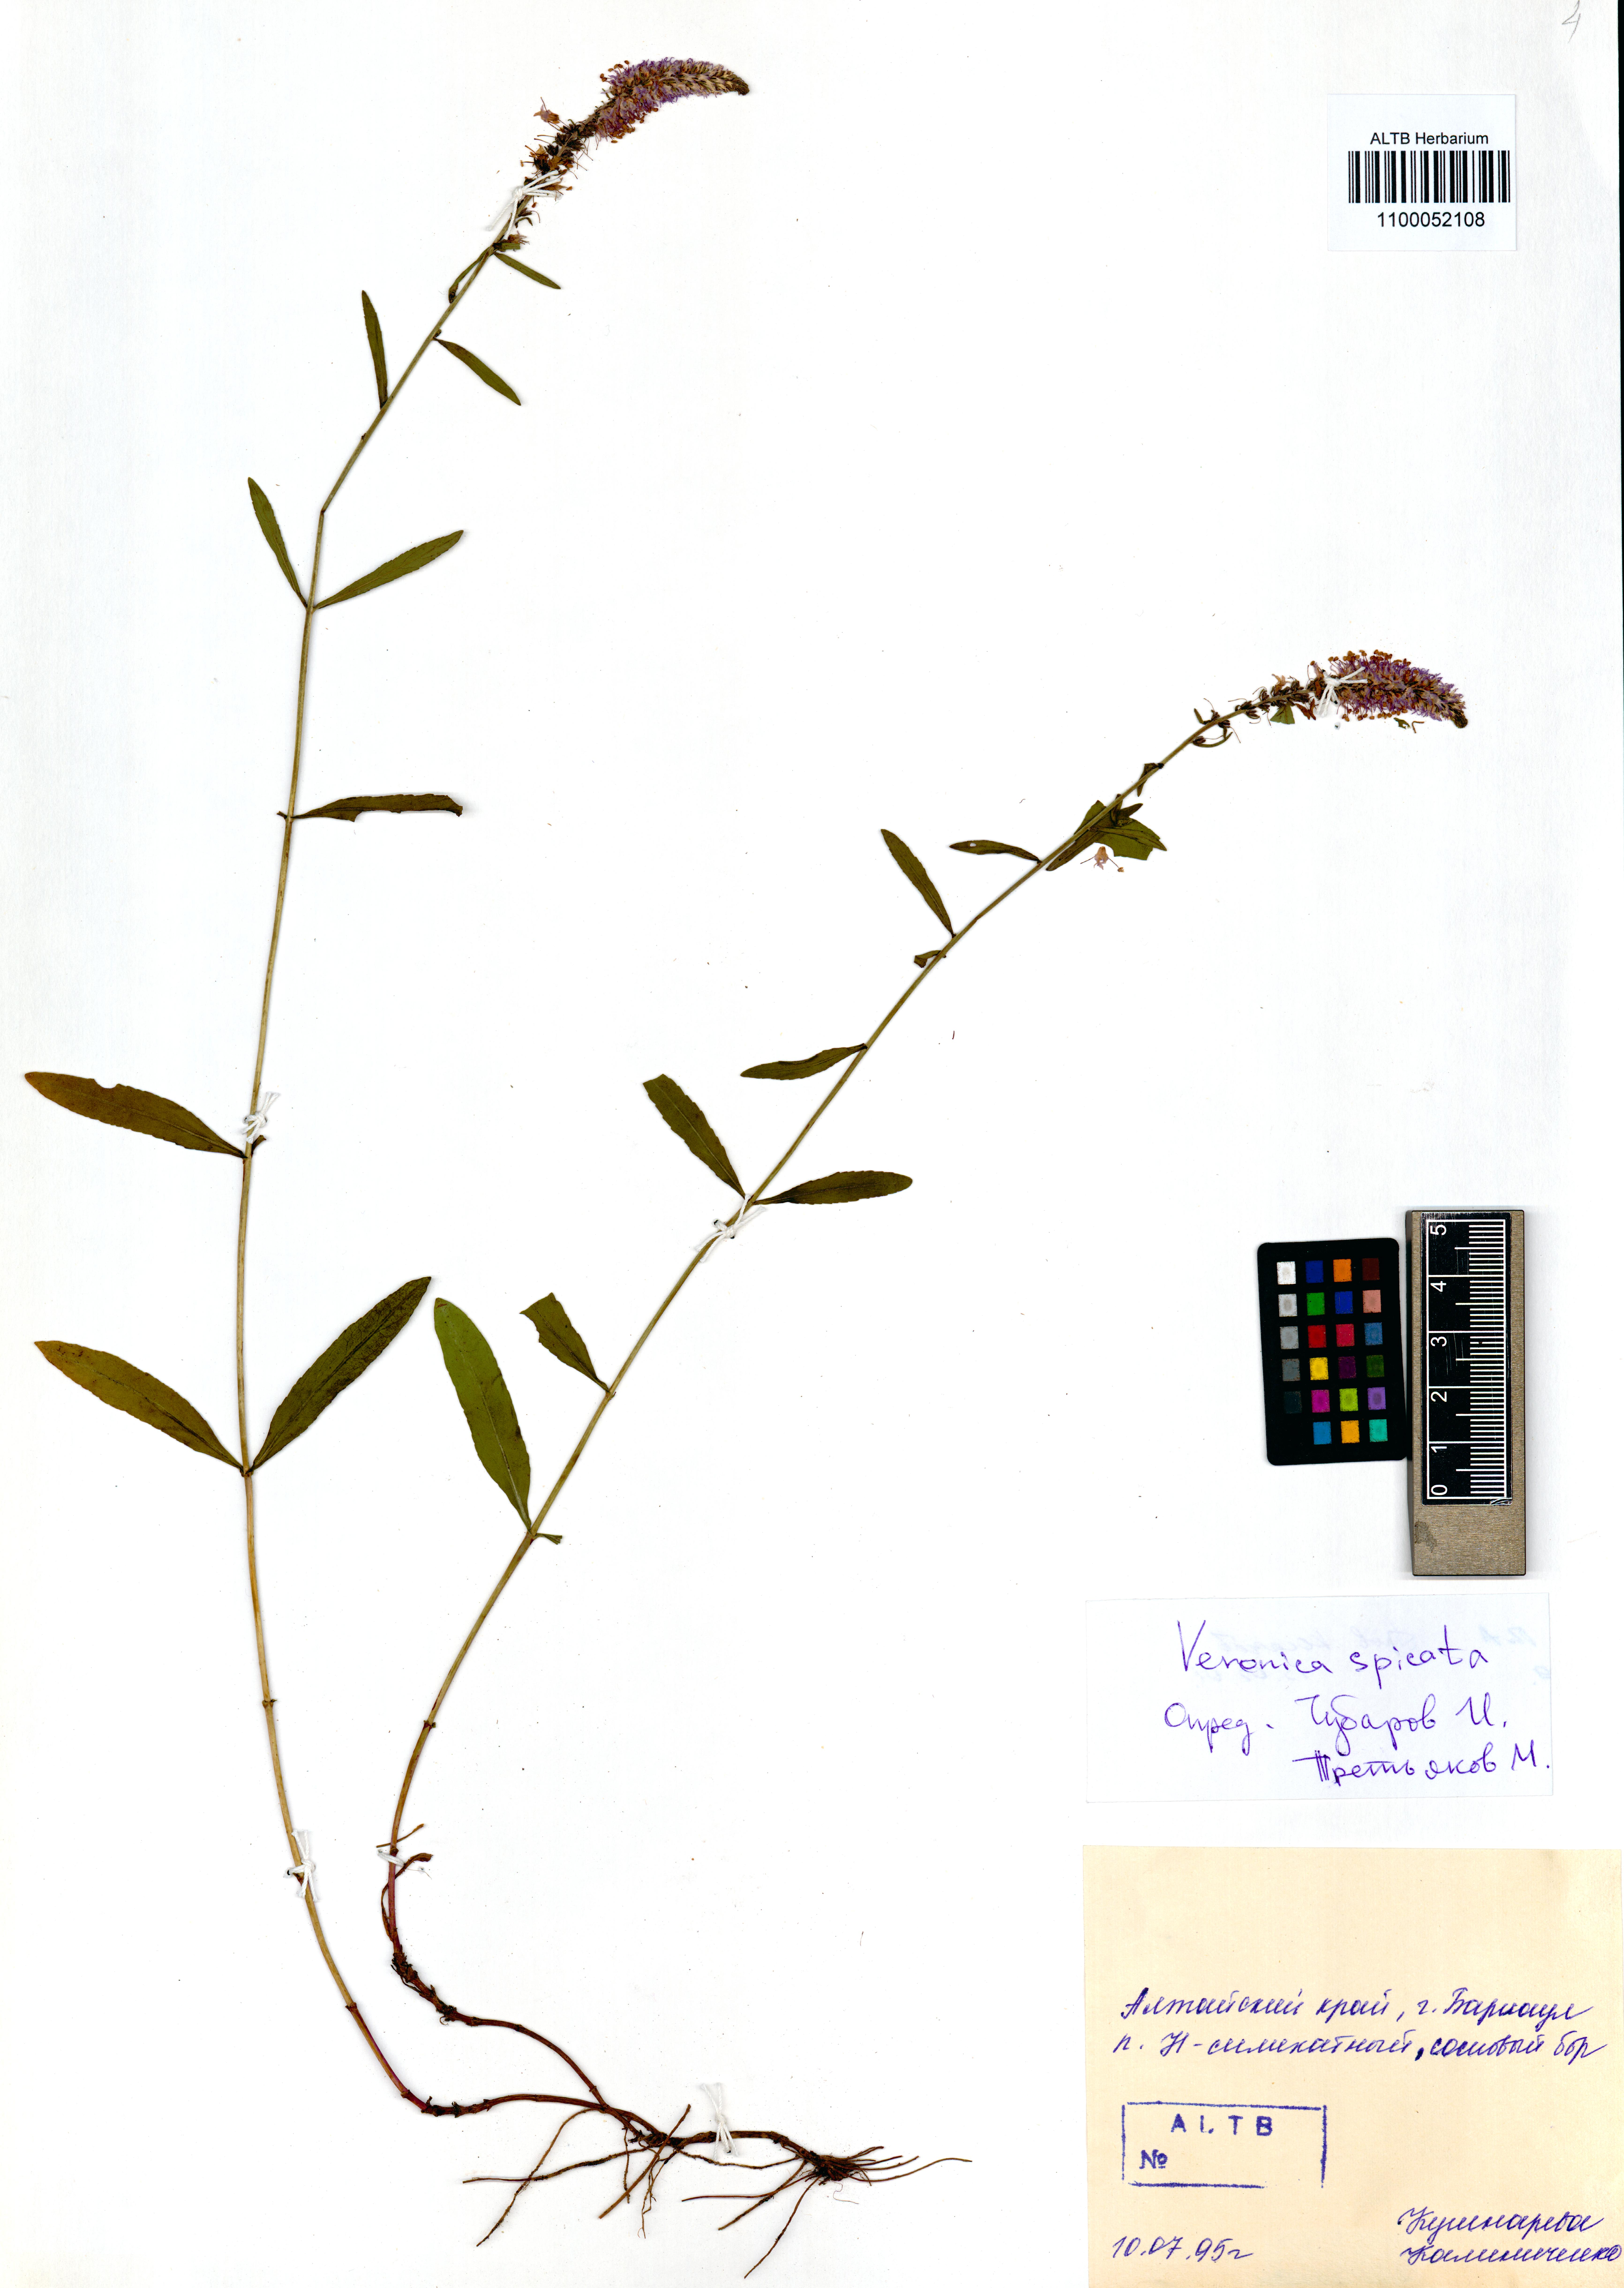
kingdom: Plantae
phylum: Tracheophyta
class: Magnoliopsida
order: Lamiales
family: Plantaginaceae
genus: Veronica
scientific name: Veronica spicata
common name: Spiked speedwell
